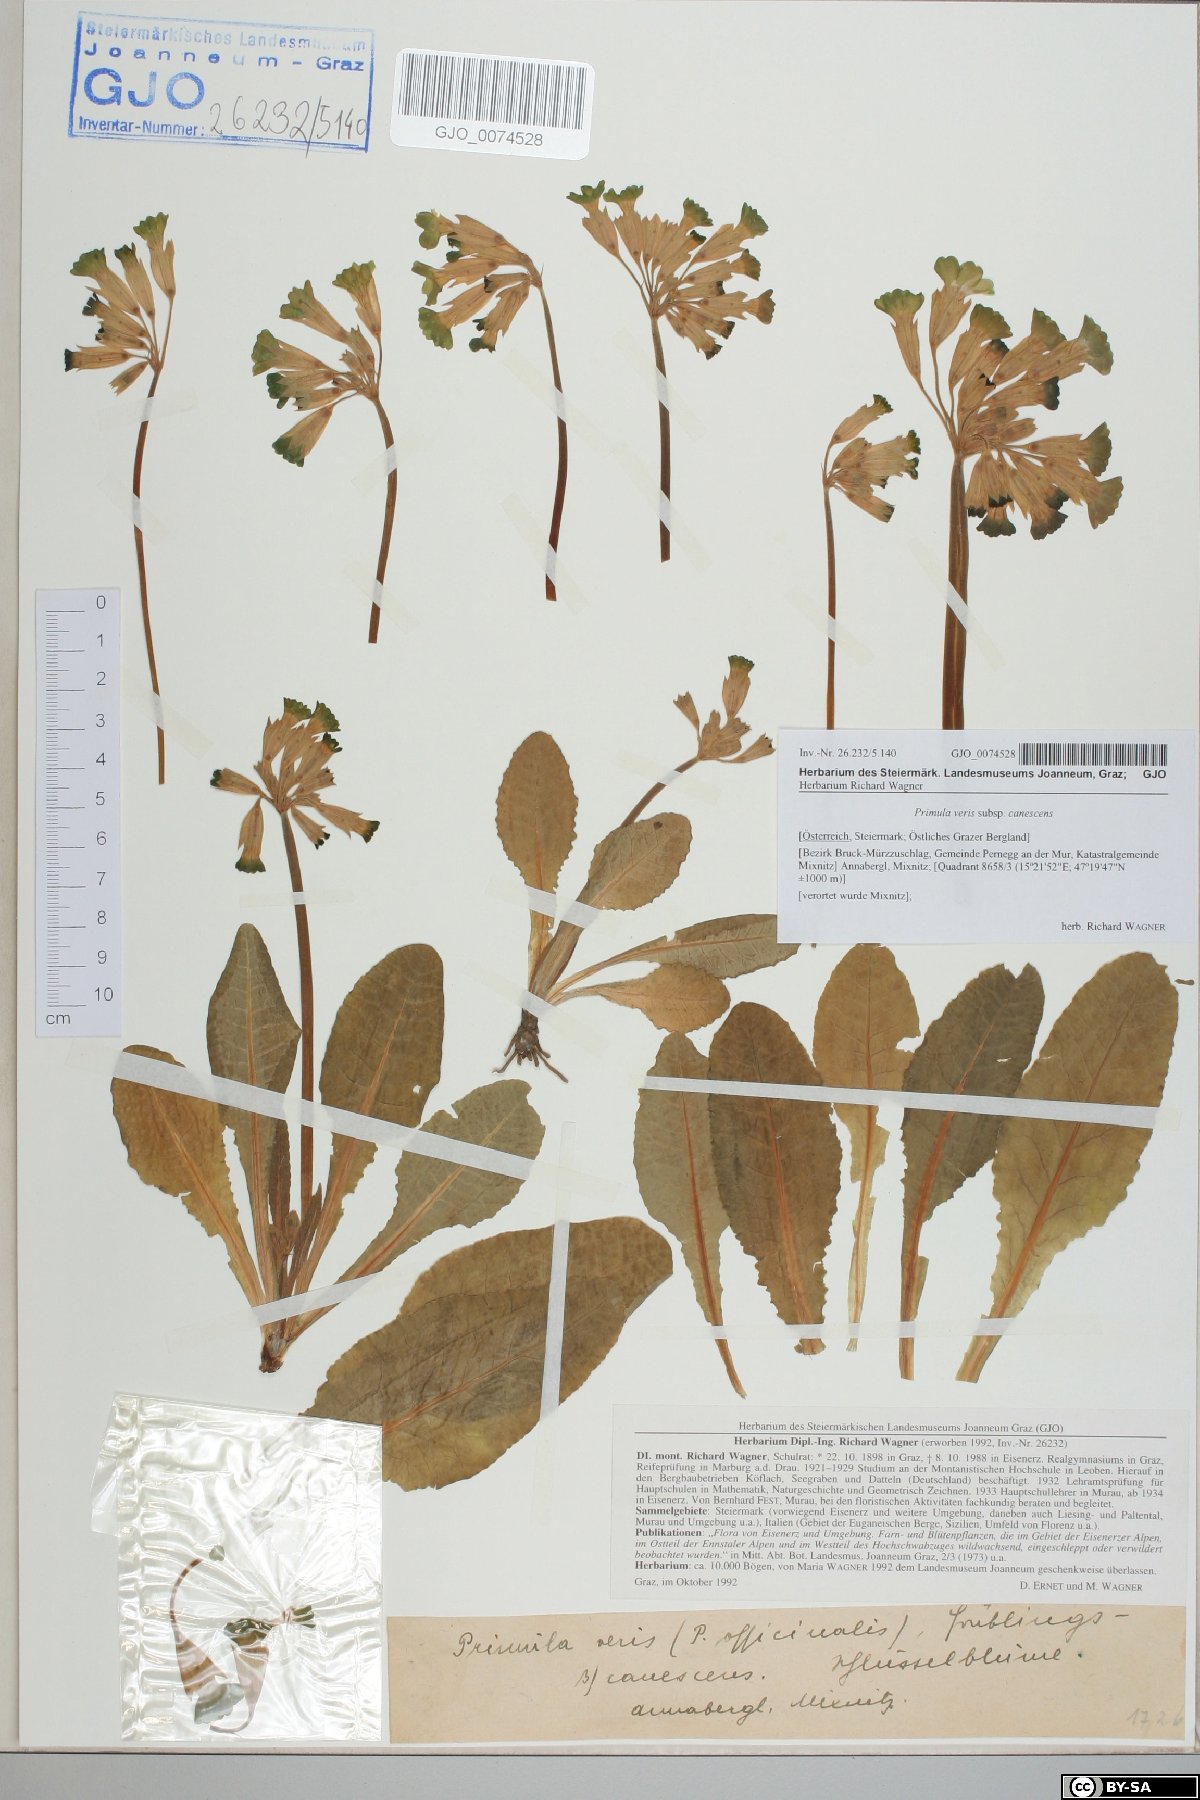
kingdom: Plantae
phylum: Tracheophyta
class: Magnoliopsida
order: Ericales
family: Primulaceae
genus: Primula
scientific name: Primula veris
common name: Cowslip
